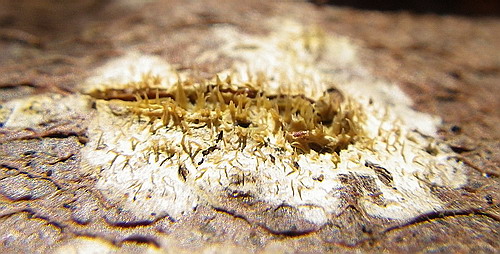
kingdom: Fungi
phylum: Basidiomycota
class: Agaricomycetes
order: Polyporales
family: Meruliaceae
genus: Mycoacia
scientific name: Mycoacia uda
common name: citrongul vokspig
